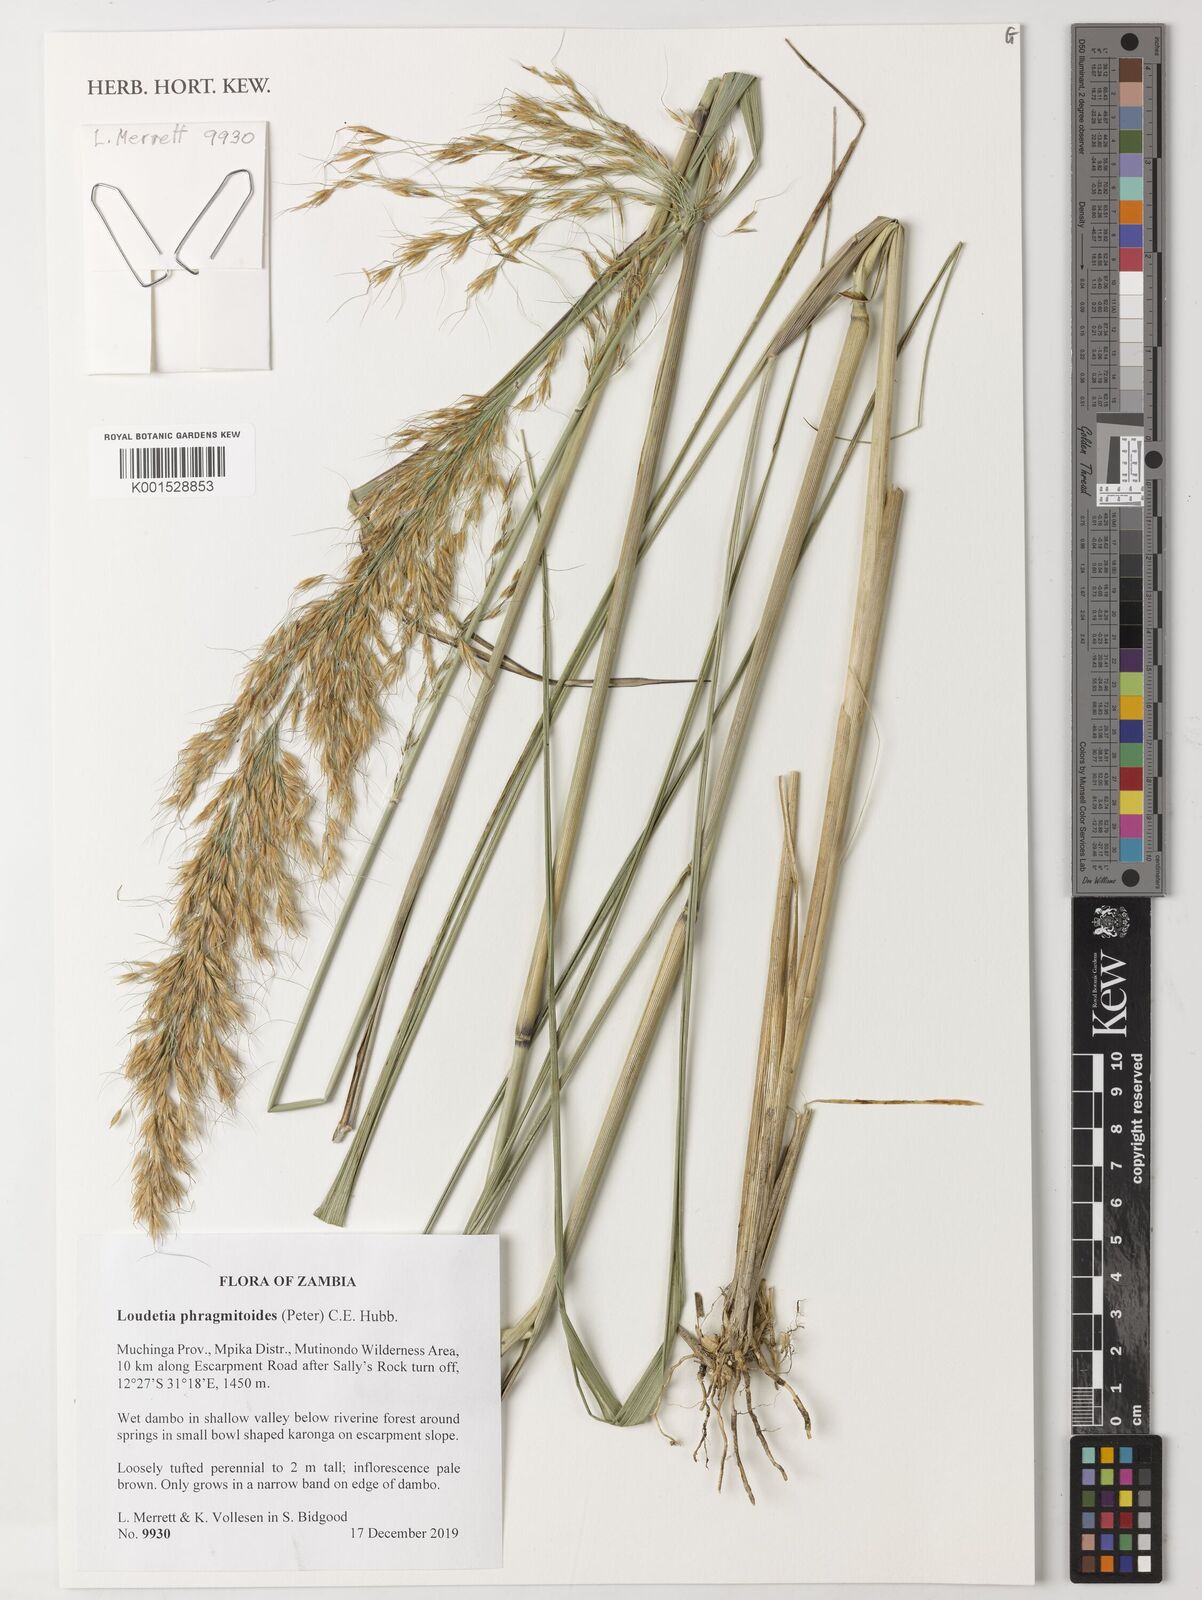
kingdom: Plantae
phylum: Tracheophyta
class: Liliopsida
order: Poales
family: Poaceae
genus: Loudetia
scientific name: Loudetia phragmitoides
